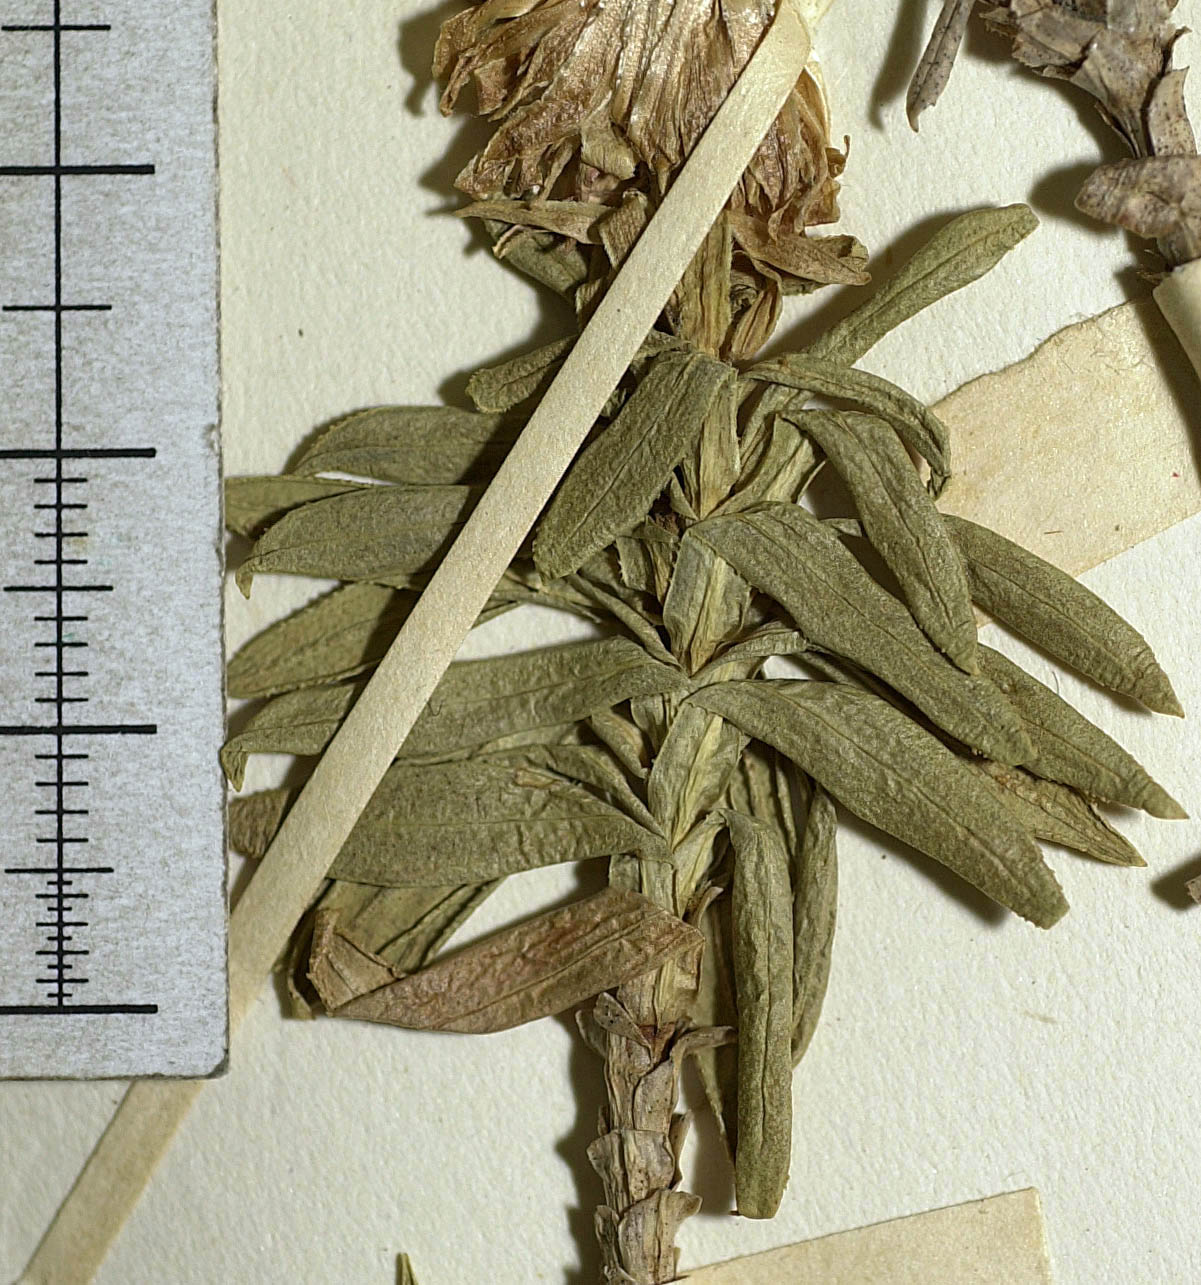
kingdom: Plantae
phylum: Tracheophyta
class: Magnoliopsida
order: Asterales
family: Asteraceae
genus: Zyrphelis
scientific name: Zyrphelis outeniquae
